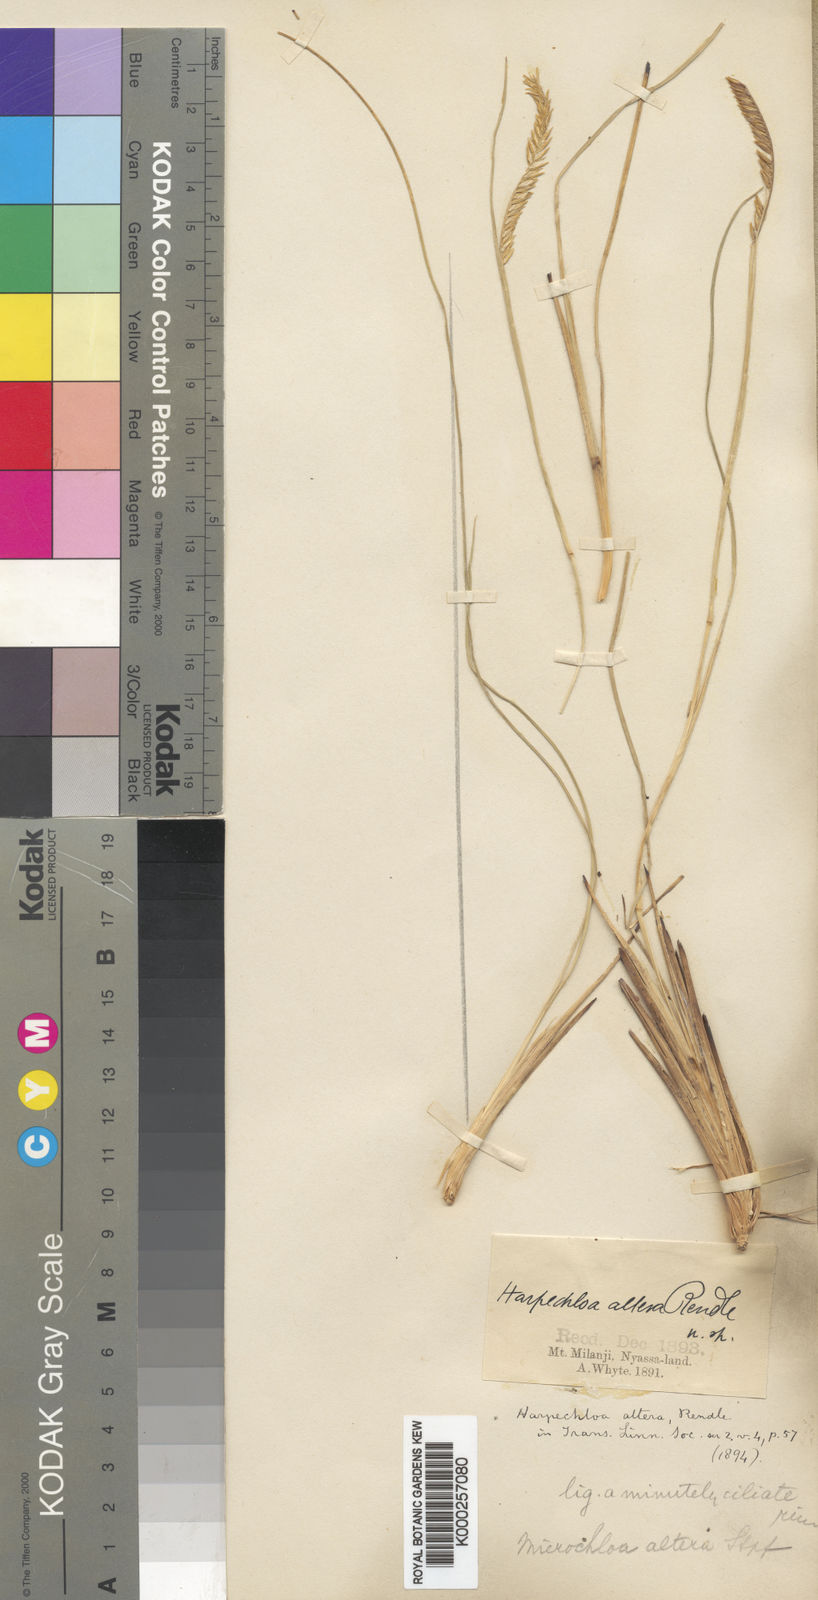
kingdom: Plantae
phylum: Tracheophyta
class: Liliopsida
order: Poales
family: Poaceae
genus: Microchloa
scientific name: Microchloa altera
